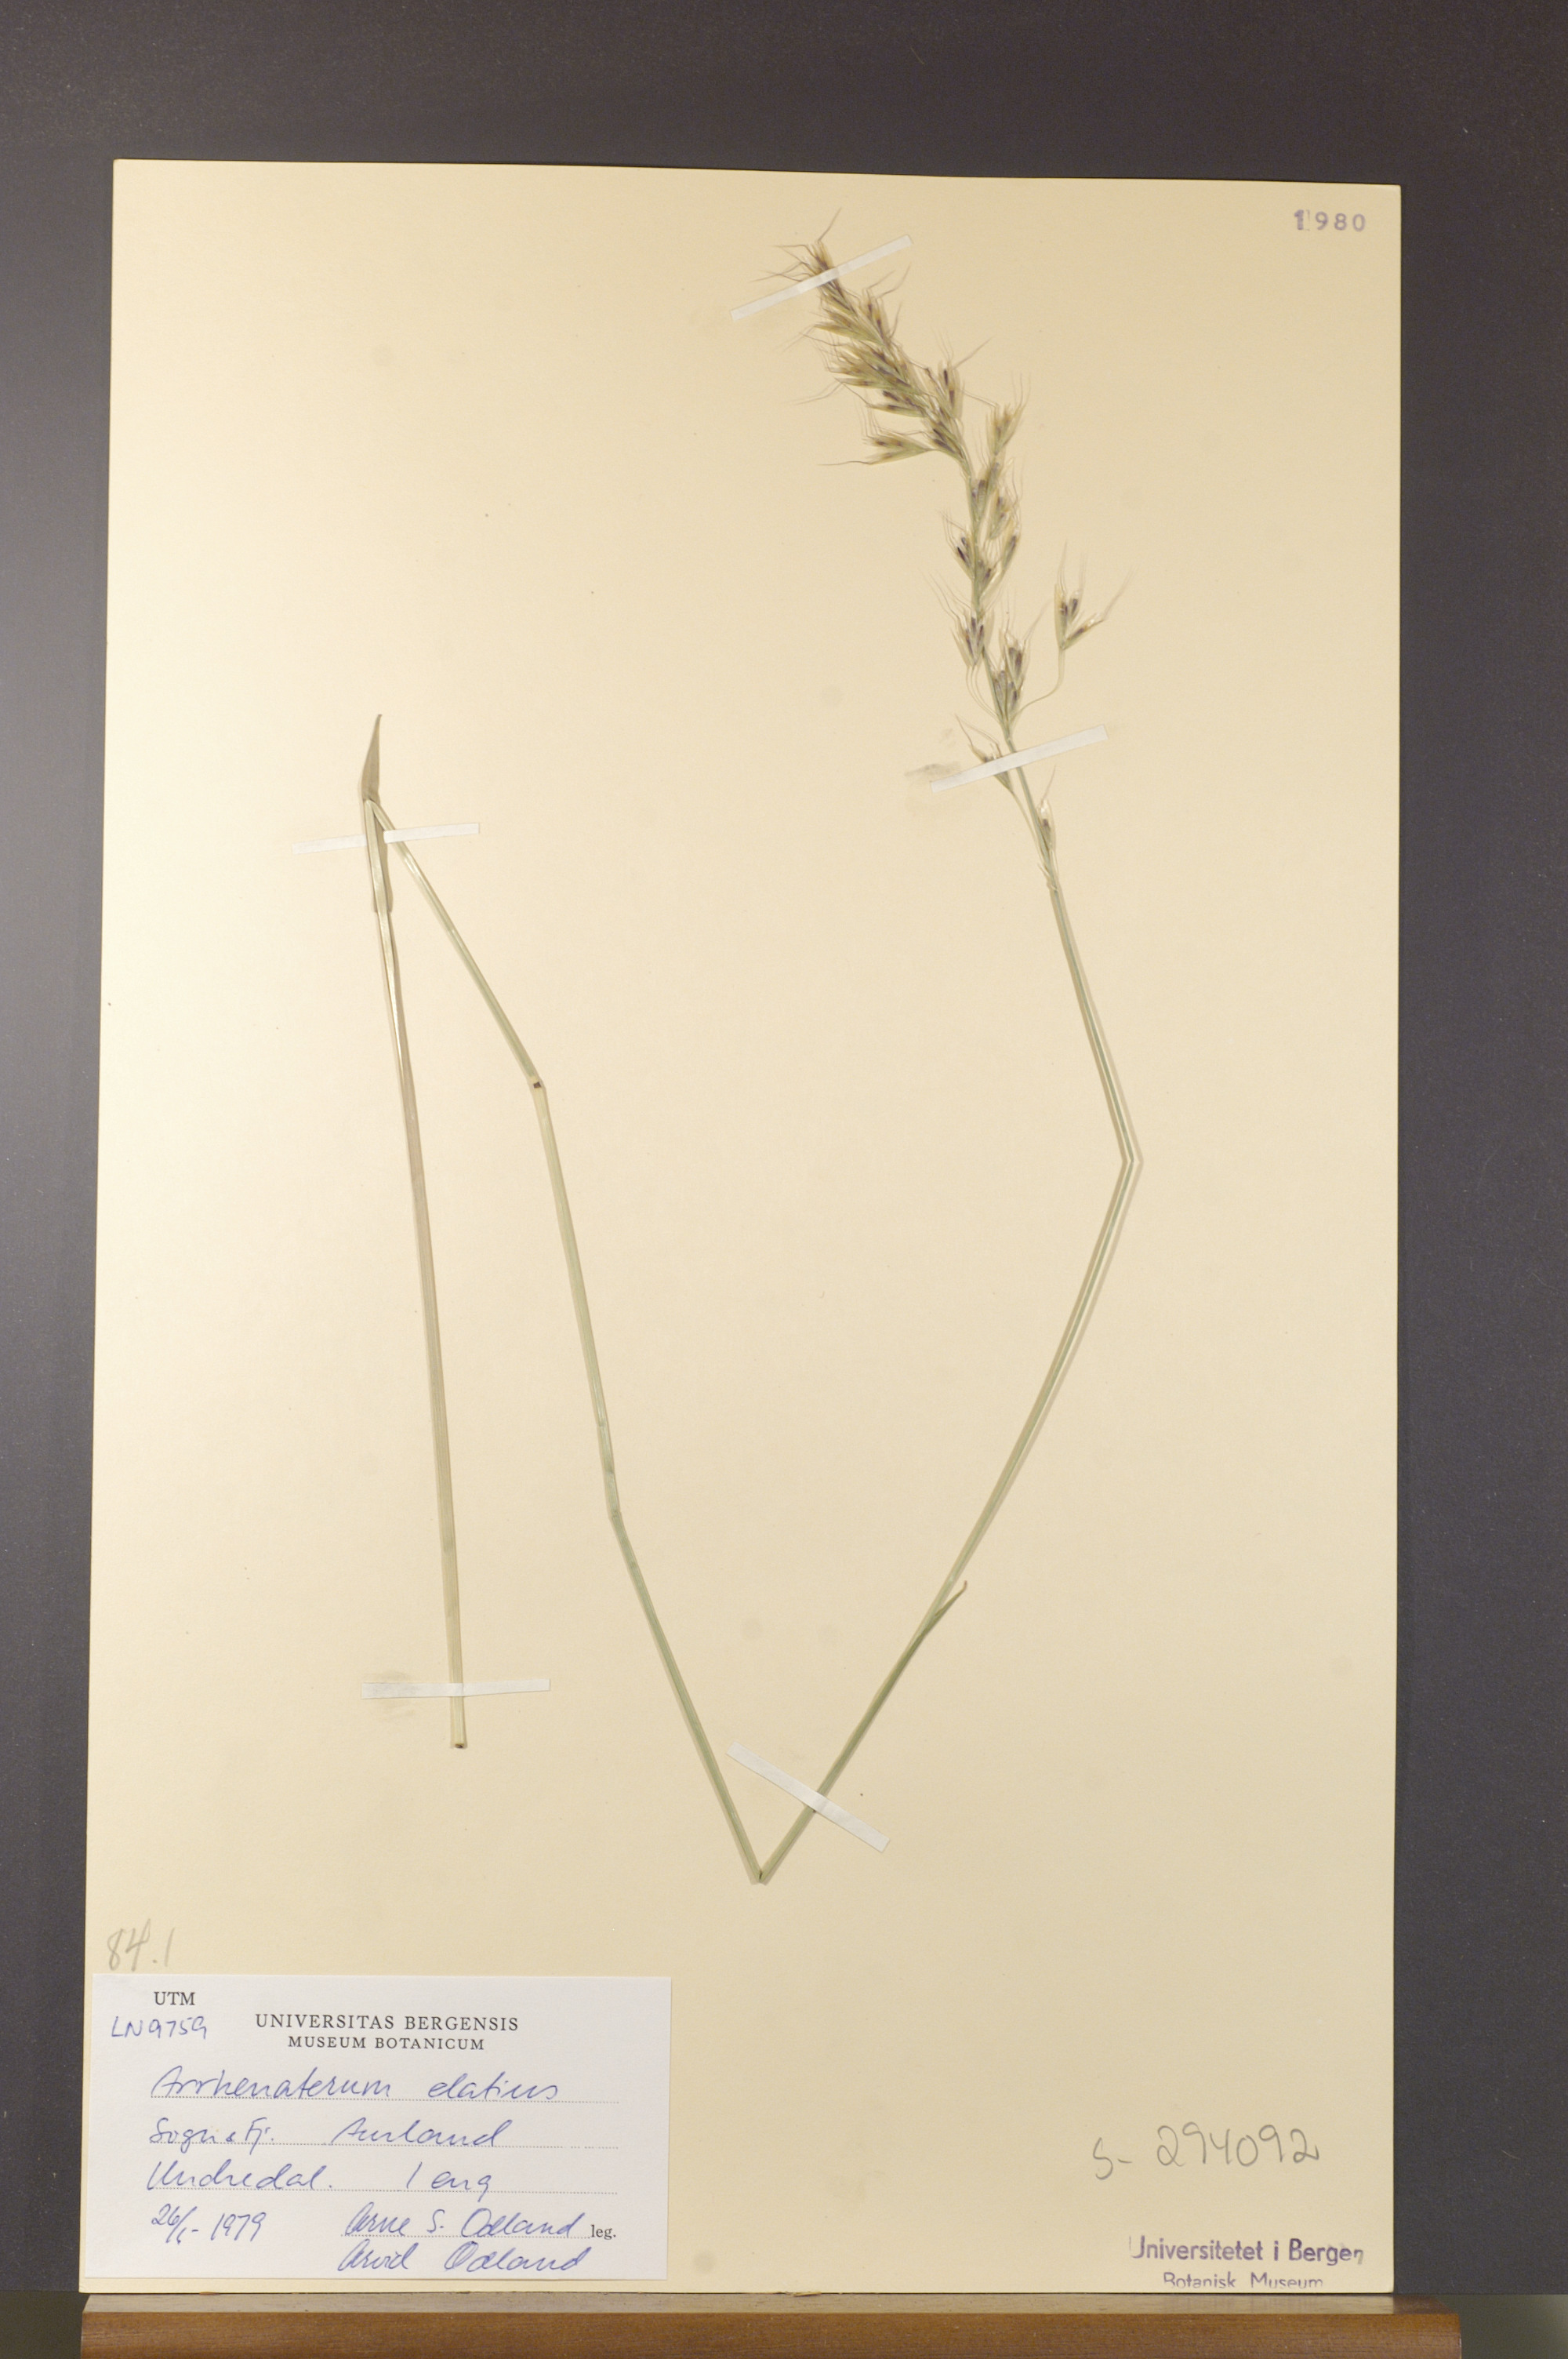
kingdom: Plantae
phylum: Tracheophyta
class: Liliopsida
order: Poales
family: Poaceae
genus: Arrhenatherum
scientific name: Arrhenatherum elatius
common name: Tall oatgrass
